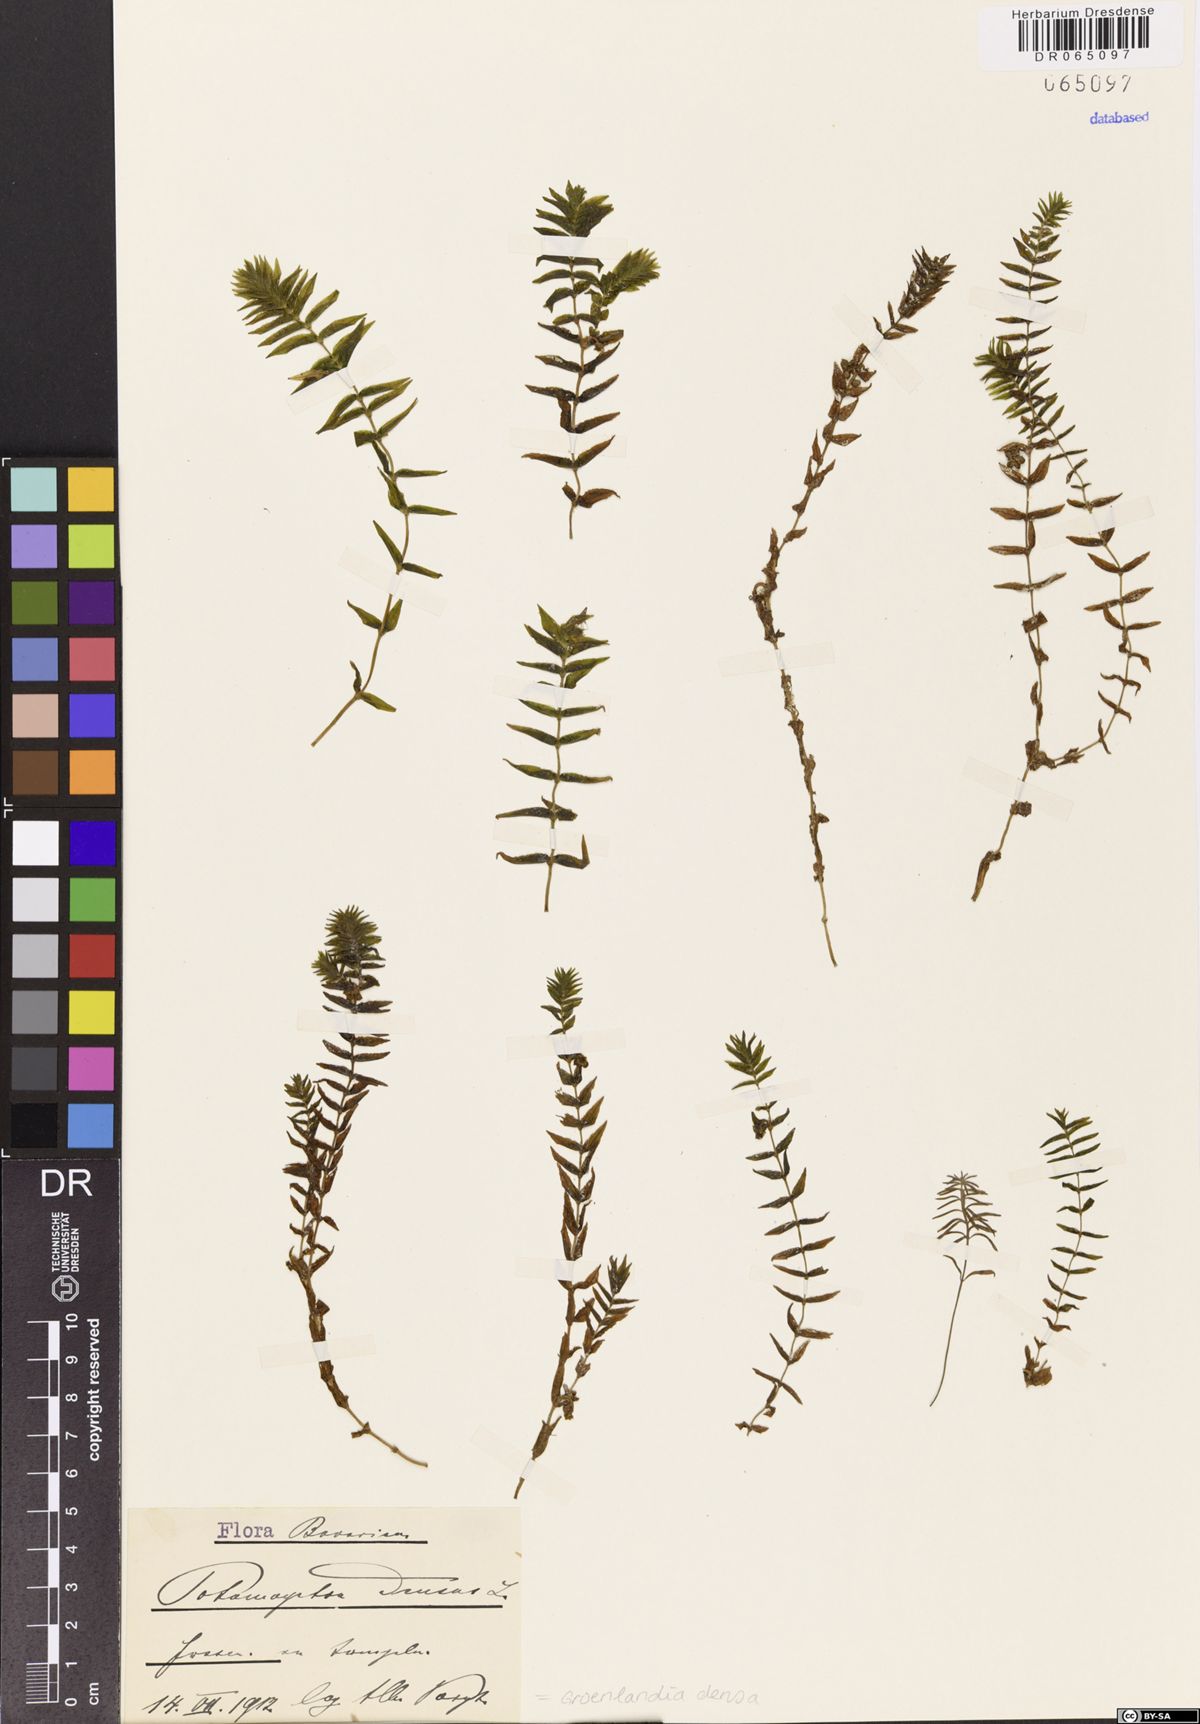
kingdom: Plantae
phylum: Tracheophyta
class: Liliopsida
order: Alismatales
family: Potamogetonaceae
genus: Groenlandia
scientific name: Groenlandia densa
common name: Opposite-leaved pondweed
